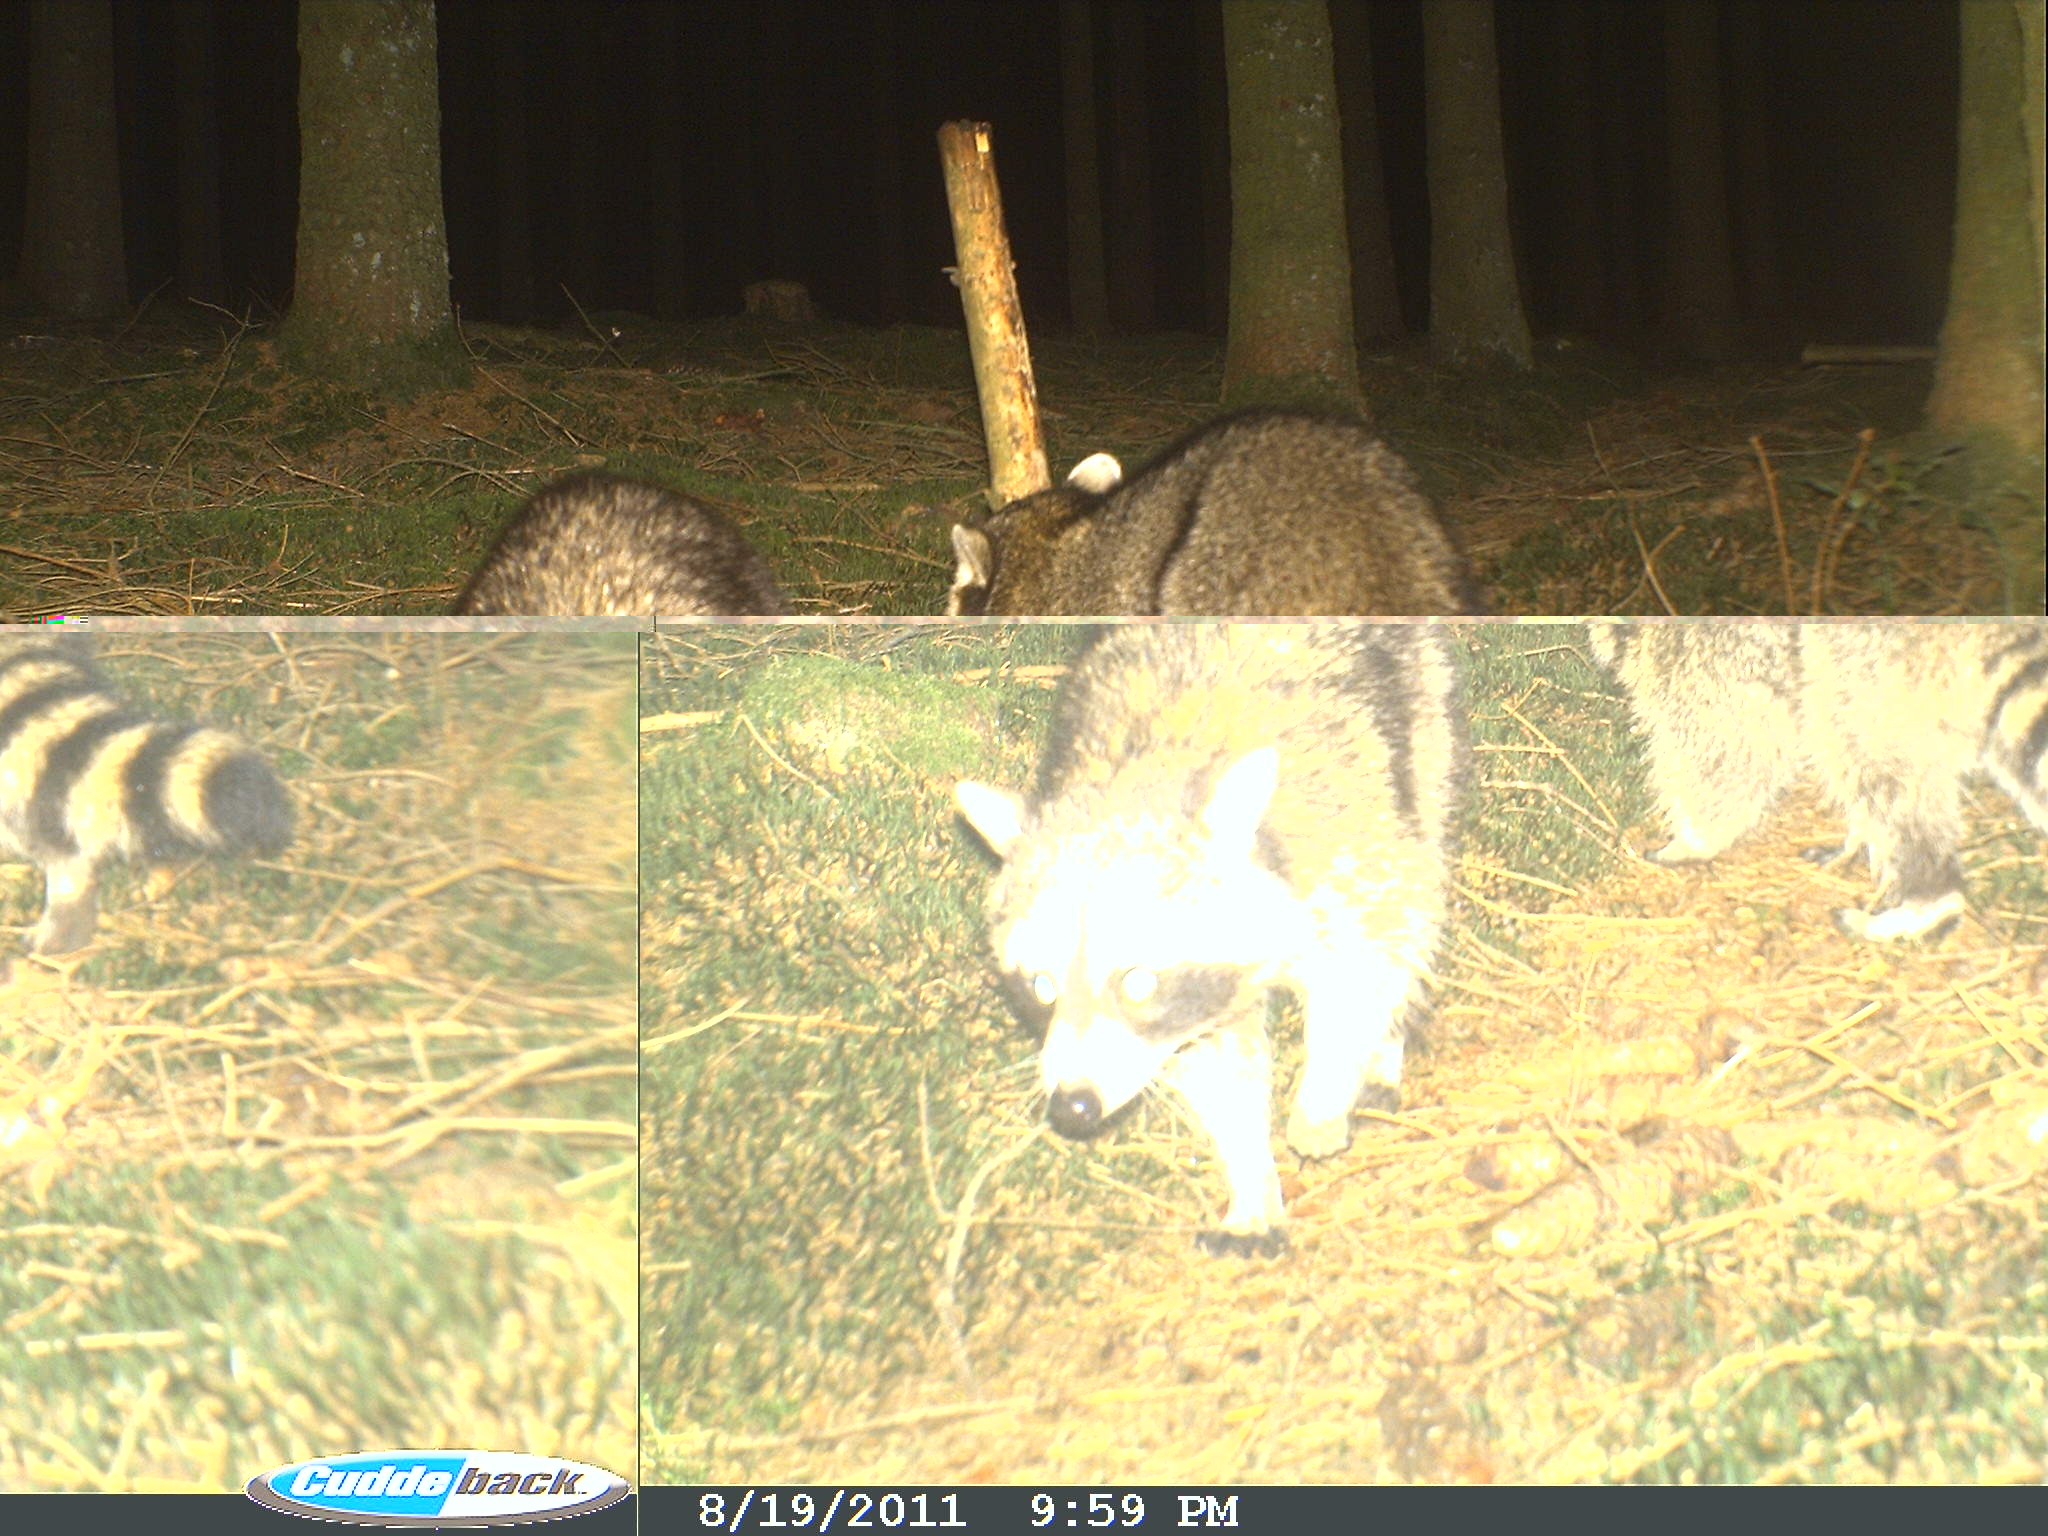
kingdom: Animalia
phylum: Chordata
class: Mammalia
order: Carnivora
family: Procyonidae
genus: Procyon
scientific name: Procyon lotor
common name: Raccoon
